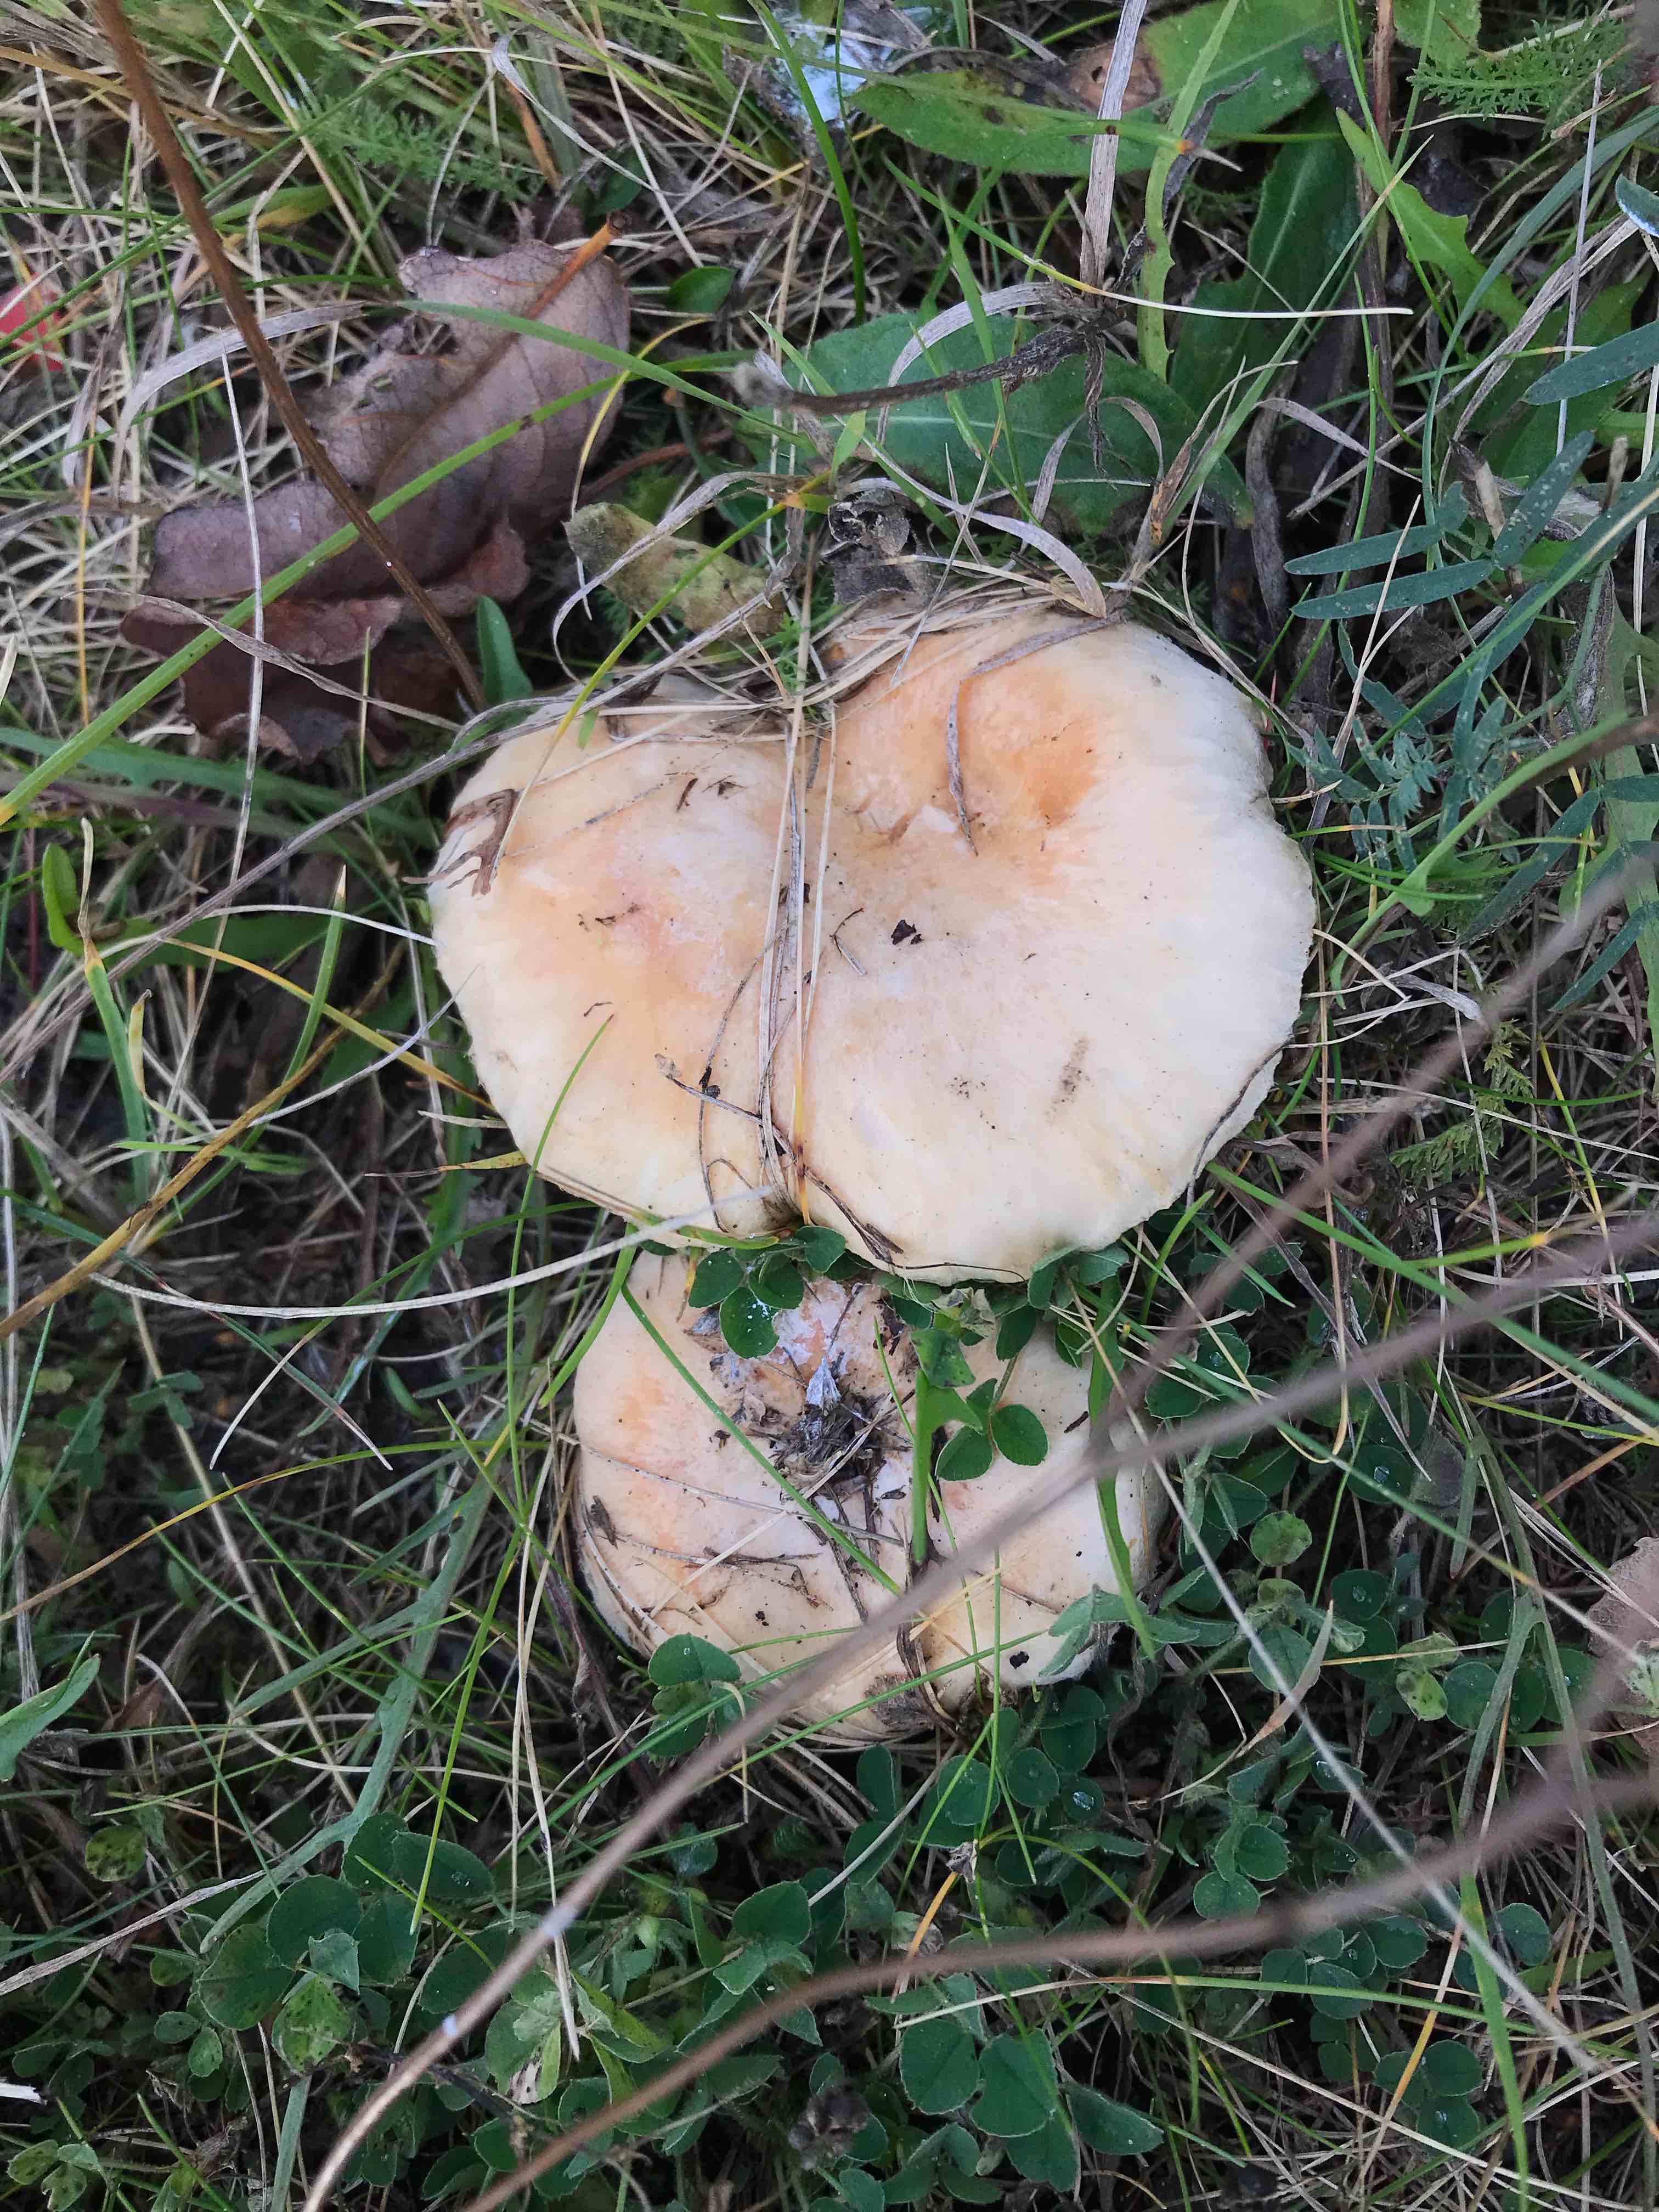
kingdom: Fungi
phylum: Basidiomycota
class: Agaricomycetes
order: Russulales
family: Russulaceae
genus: Lactarius
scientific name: Lactarius pubescens
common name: dunet mælkehat
